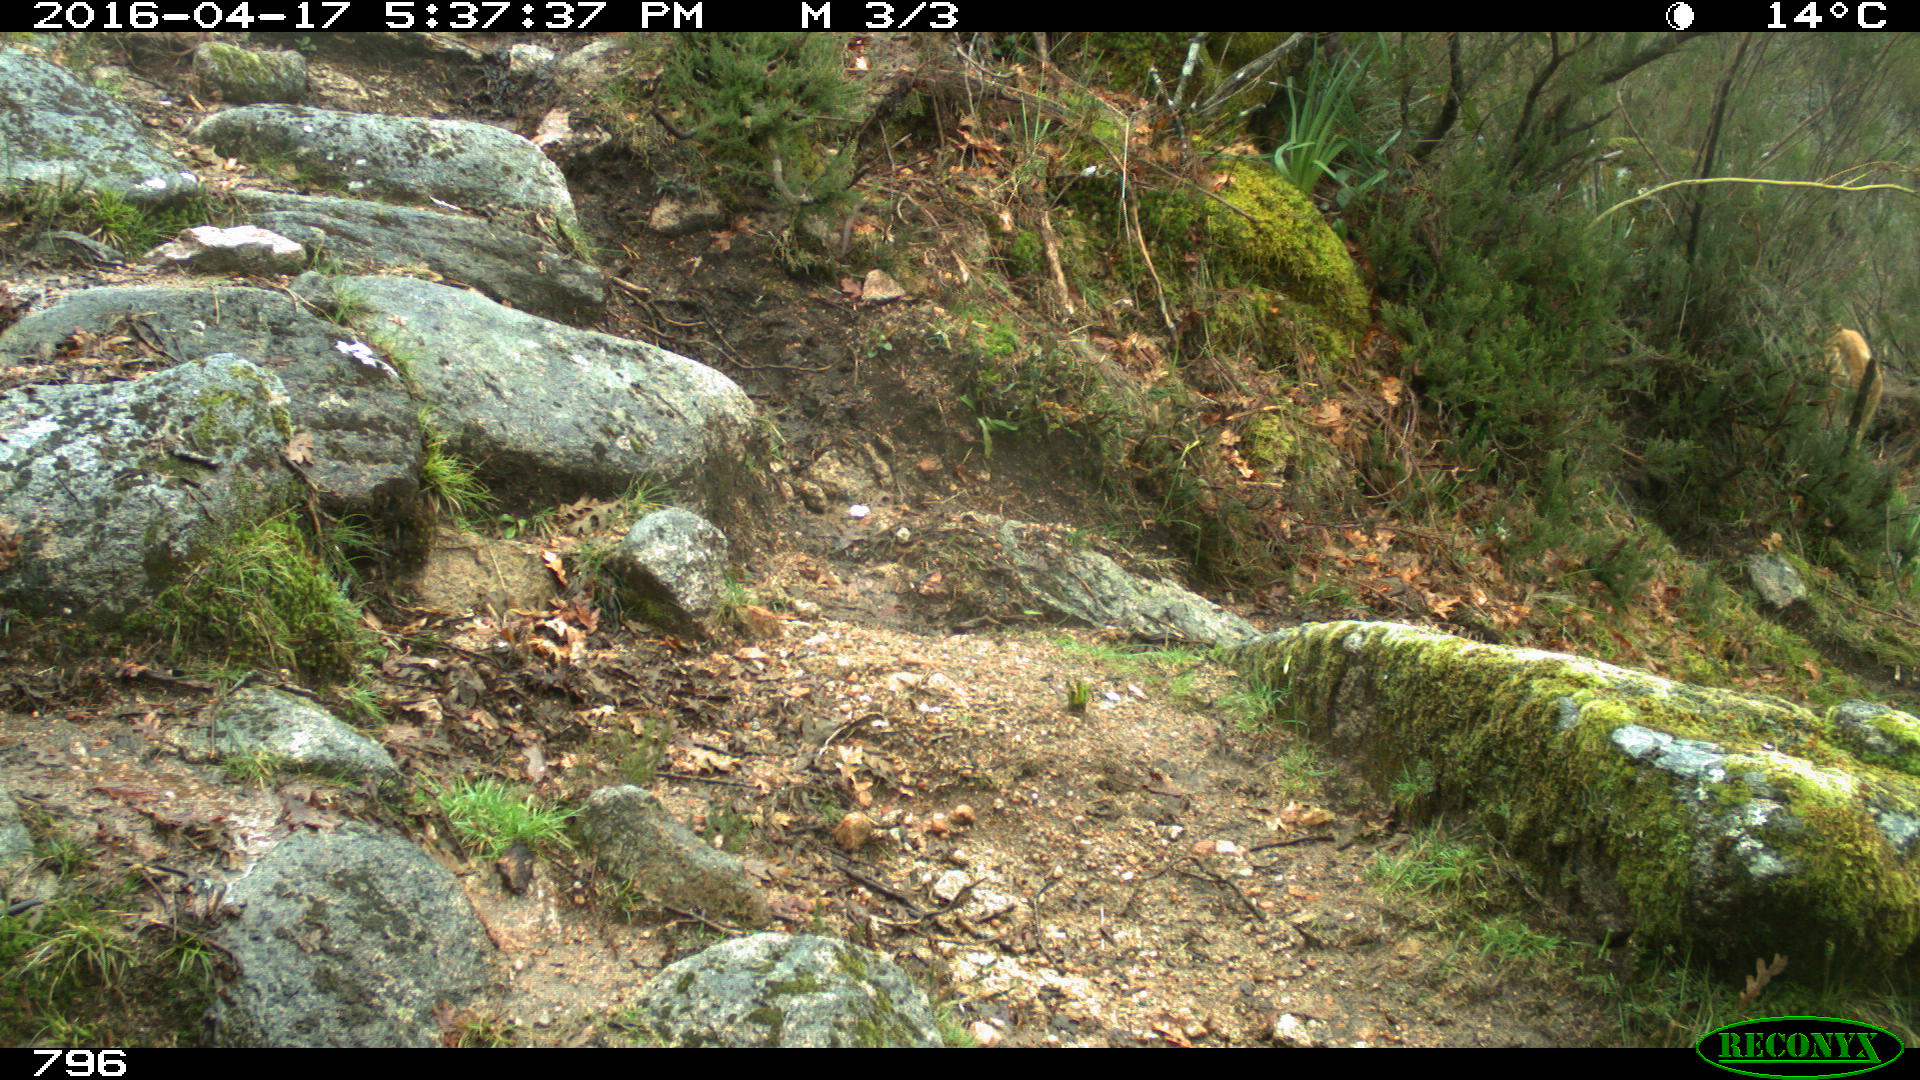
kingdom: Animalia
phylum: Chordata
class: Mammalia
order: Artiodactyla
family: Bovidae
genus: Bos
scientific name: Bos taurus
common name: Domesticated cattle
